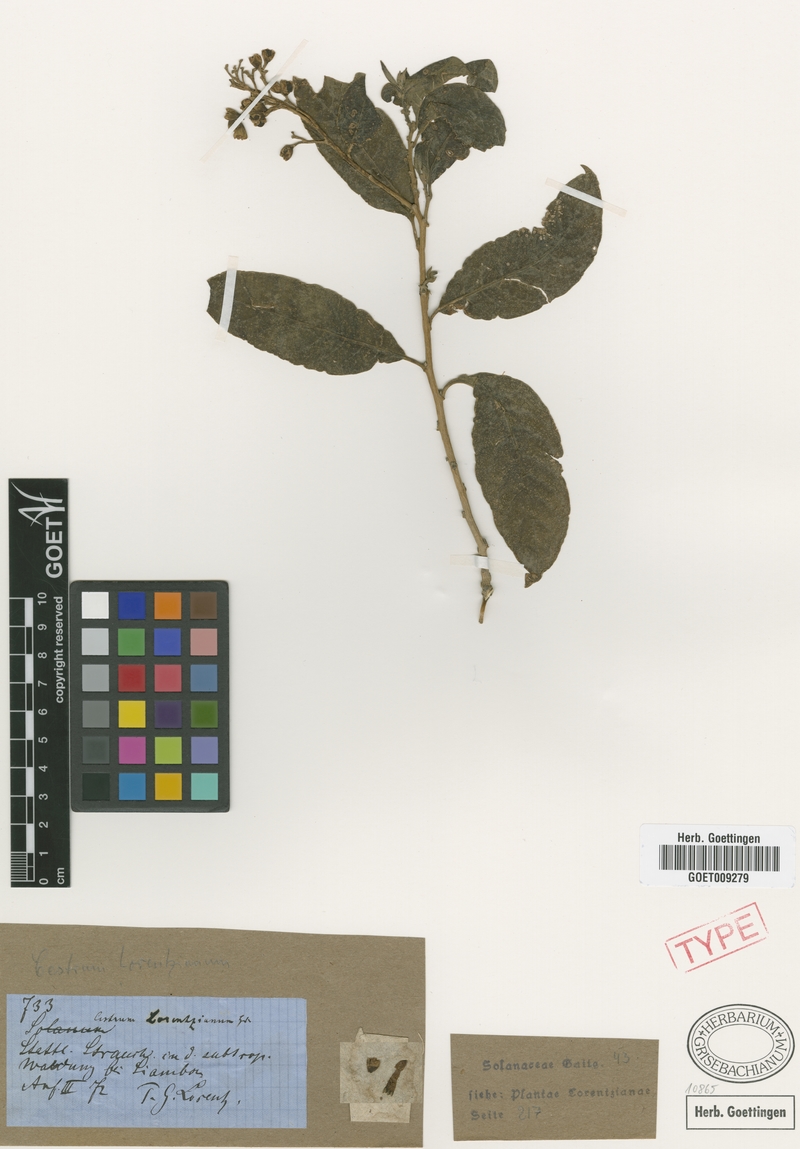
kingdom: Plantae
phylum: Tracheophyta
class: Magnoliopsida
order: Solanales
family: Solanaceae
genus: Cestrum
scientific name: Cestrum lorentzianum
